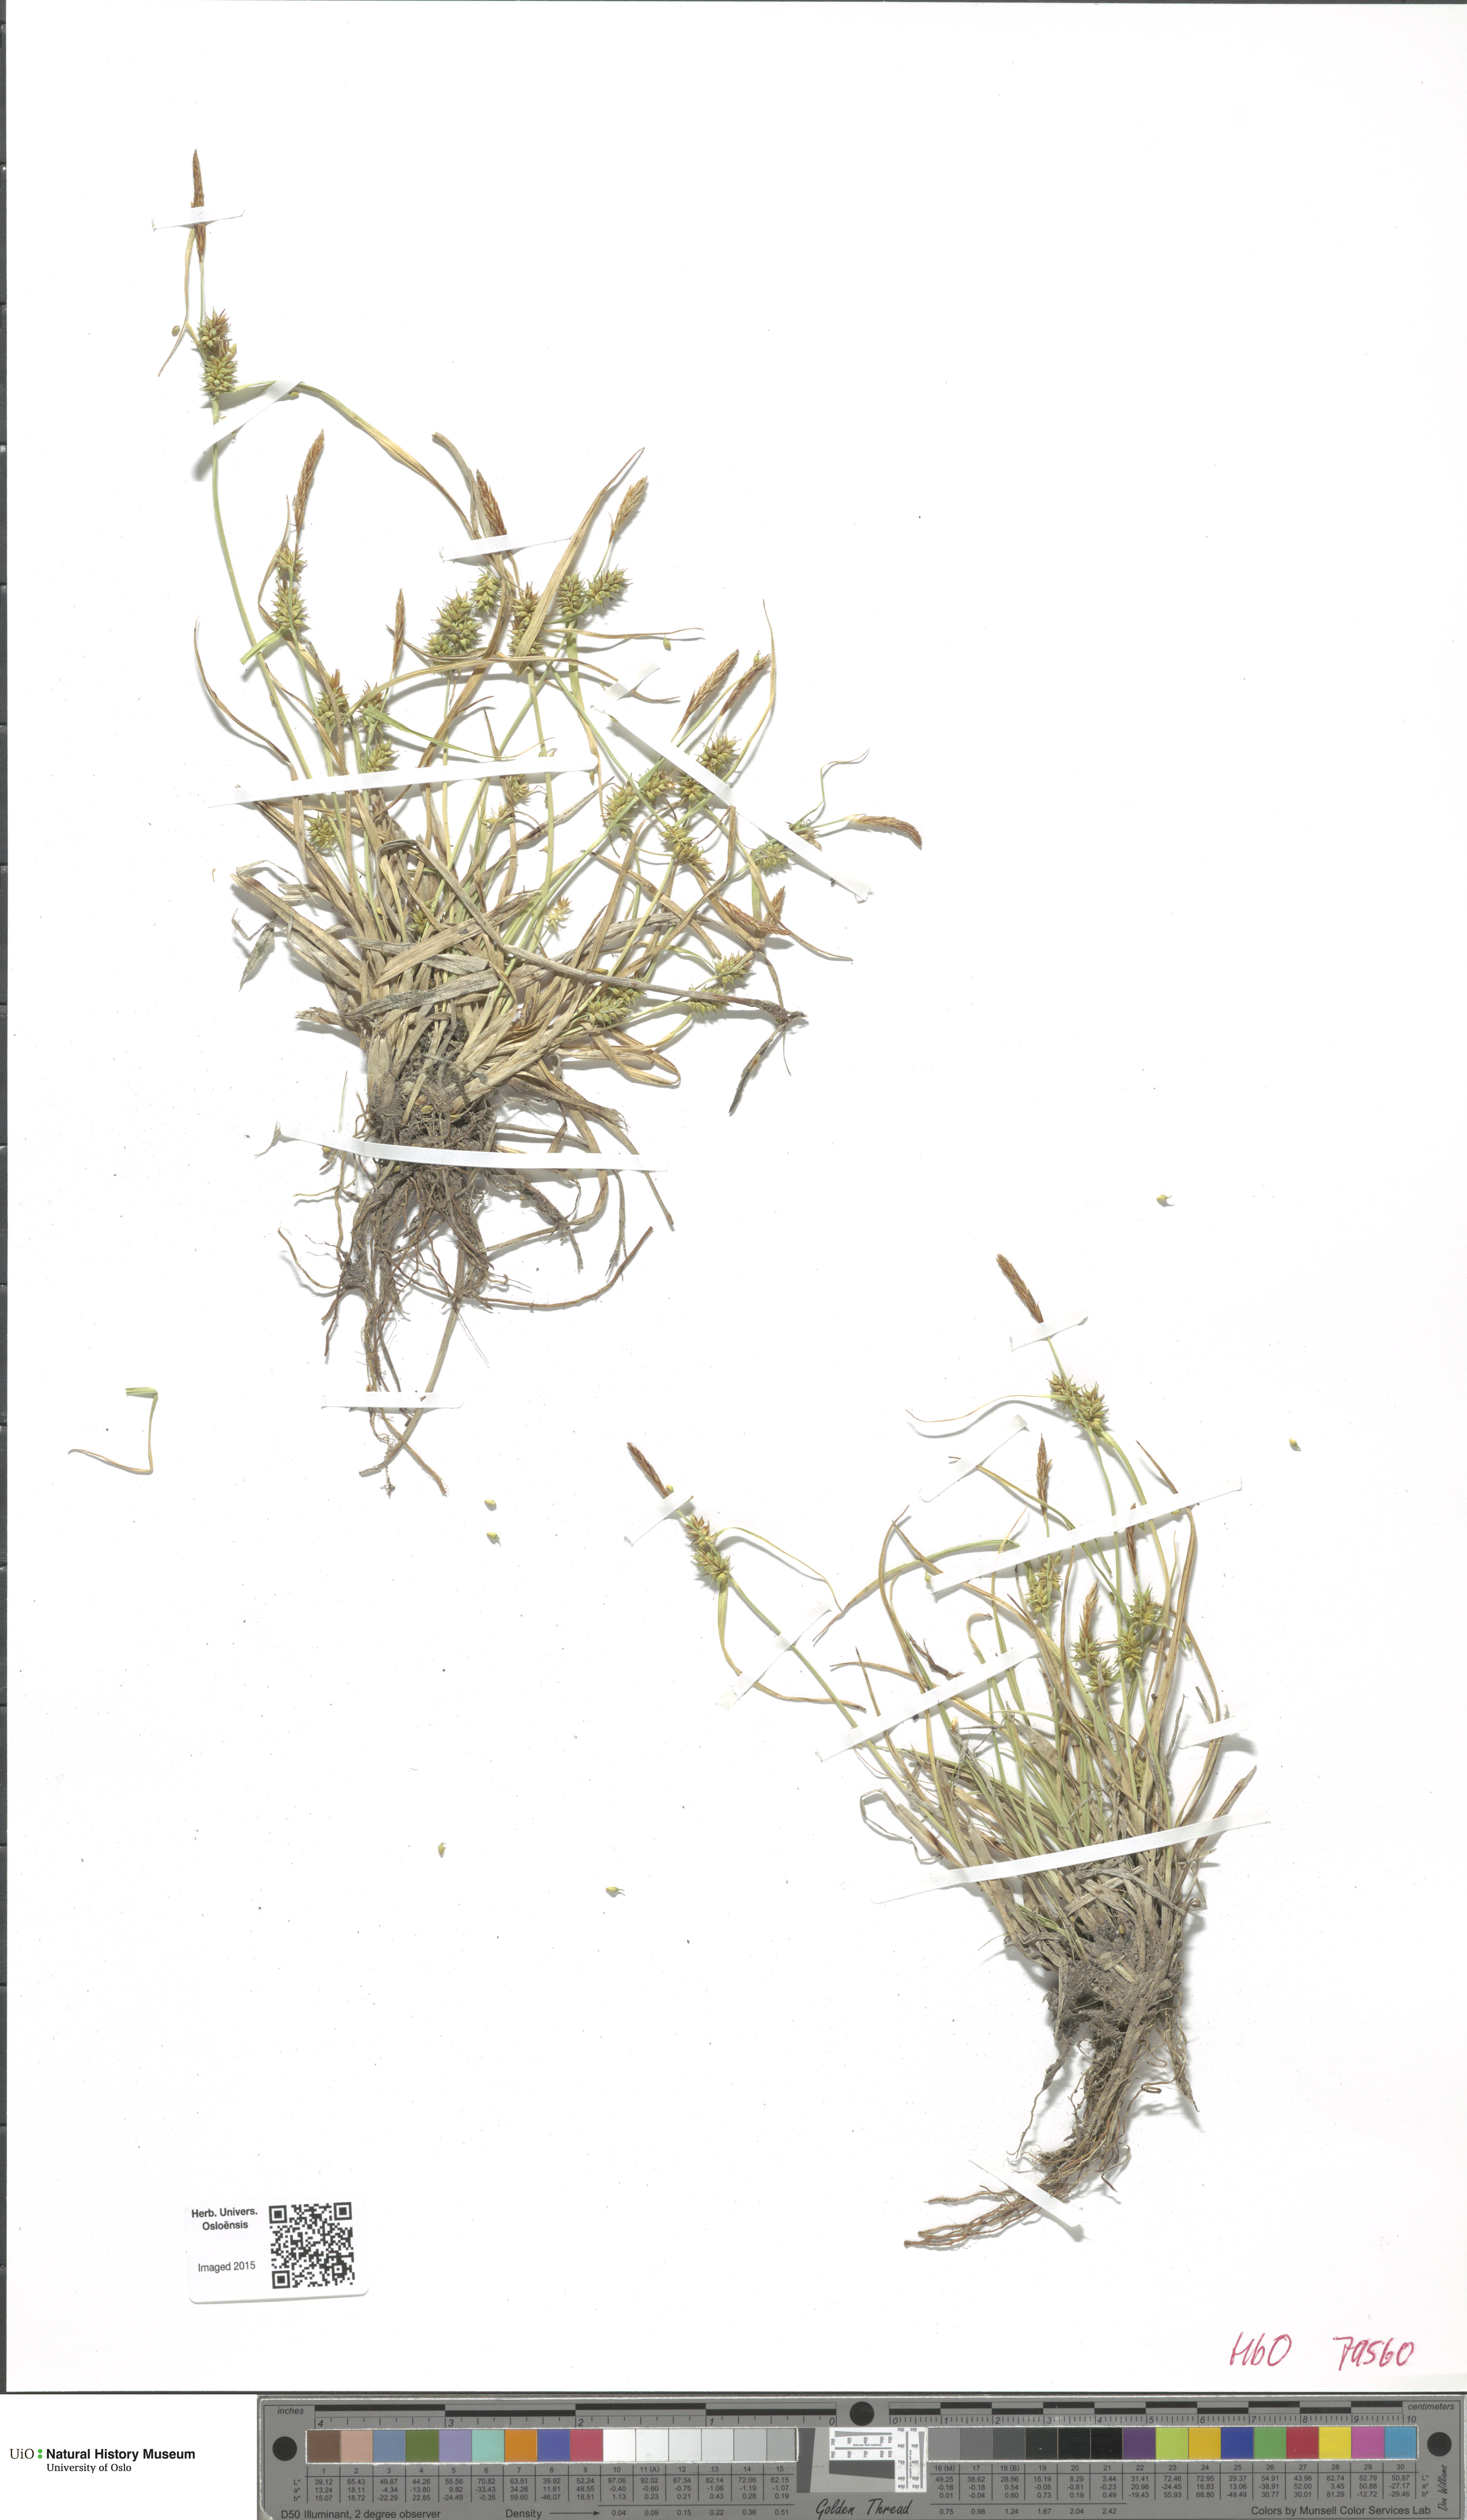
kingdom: Plantae
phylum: Tracheophyta
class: Liliopsida
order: Poales
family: Cyperaceae
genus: Carex
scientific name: Carex demissa
